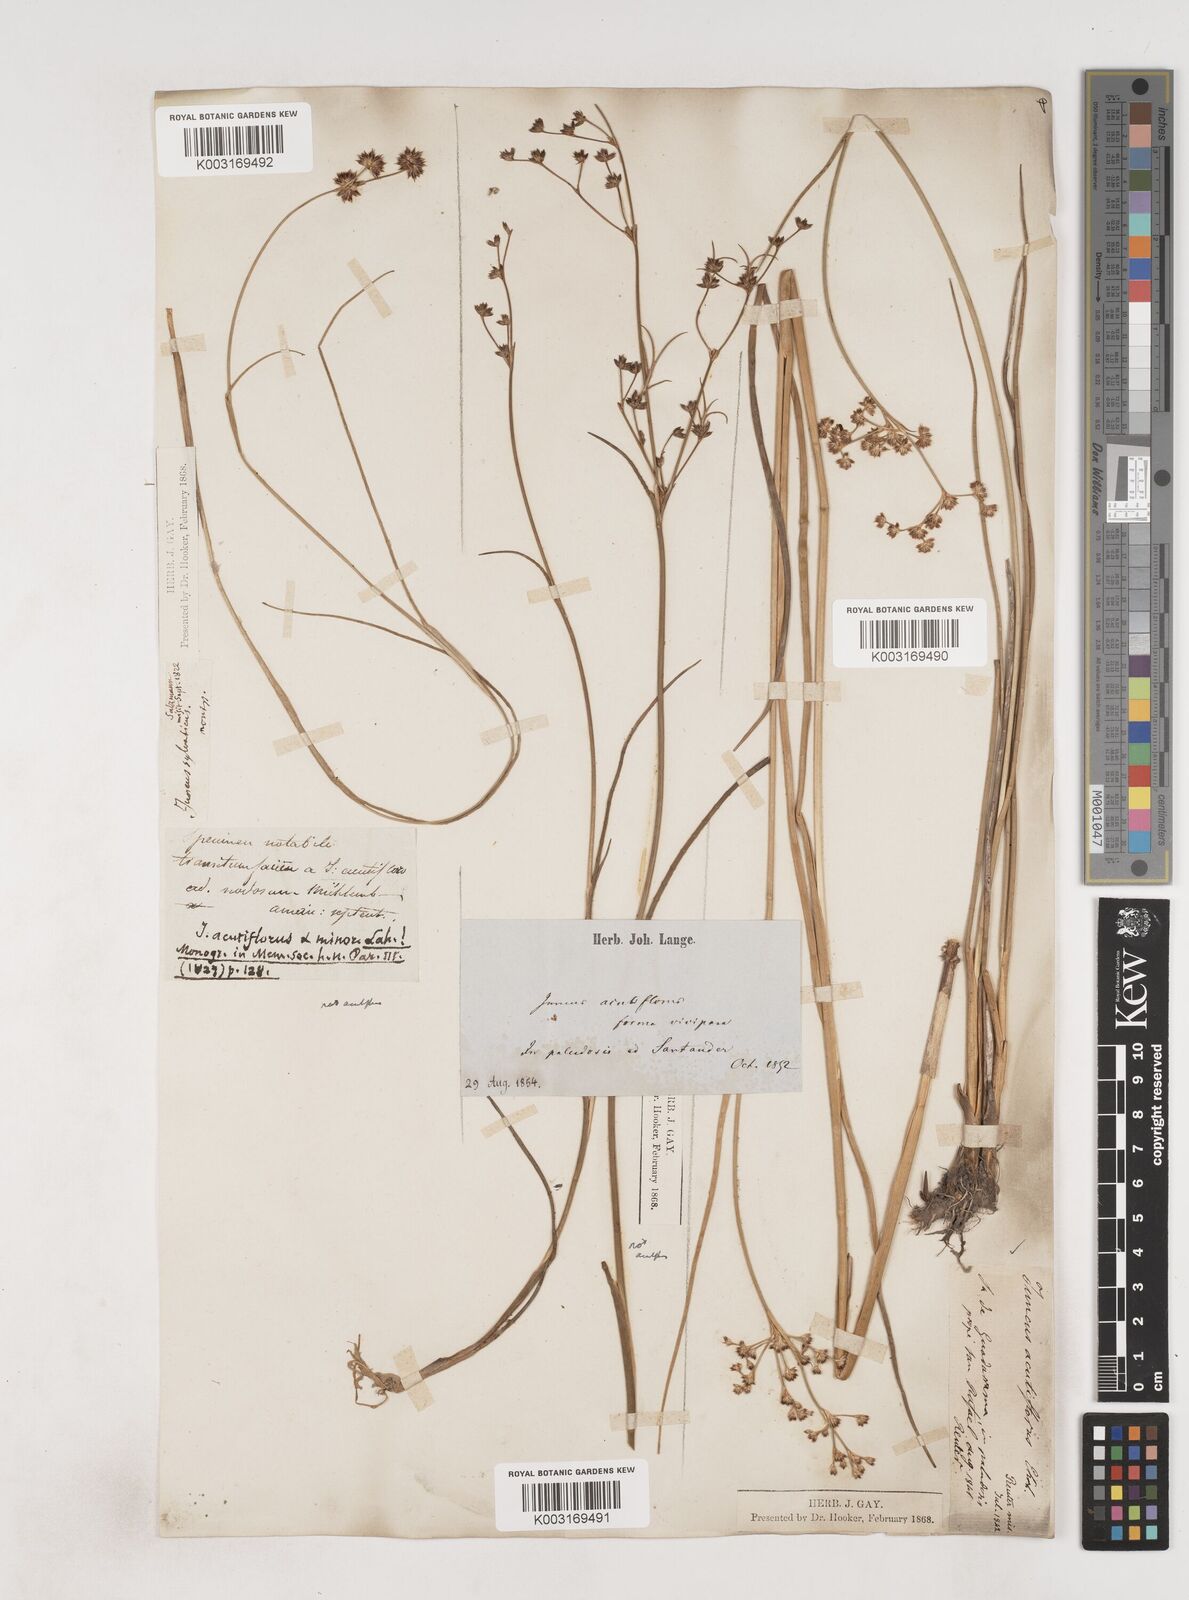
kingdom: Plantae
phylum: Tracheophyta
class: Liliopsida
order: Poales
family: Juncaceae
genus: Juncus
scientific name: Juncus acutiflorus
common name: Sharp-flowered rush
